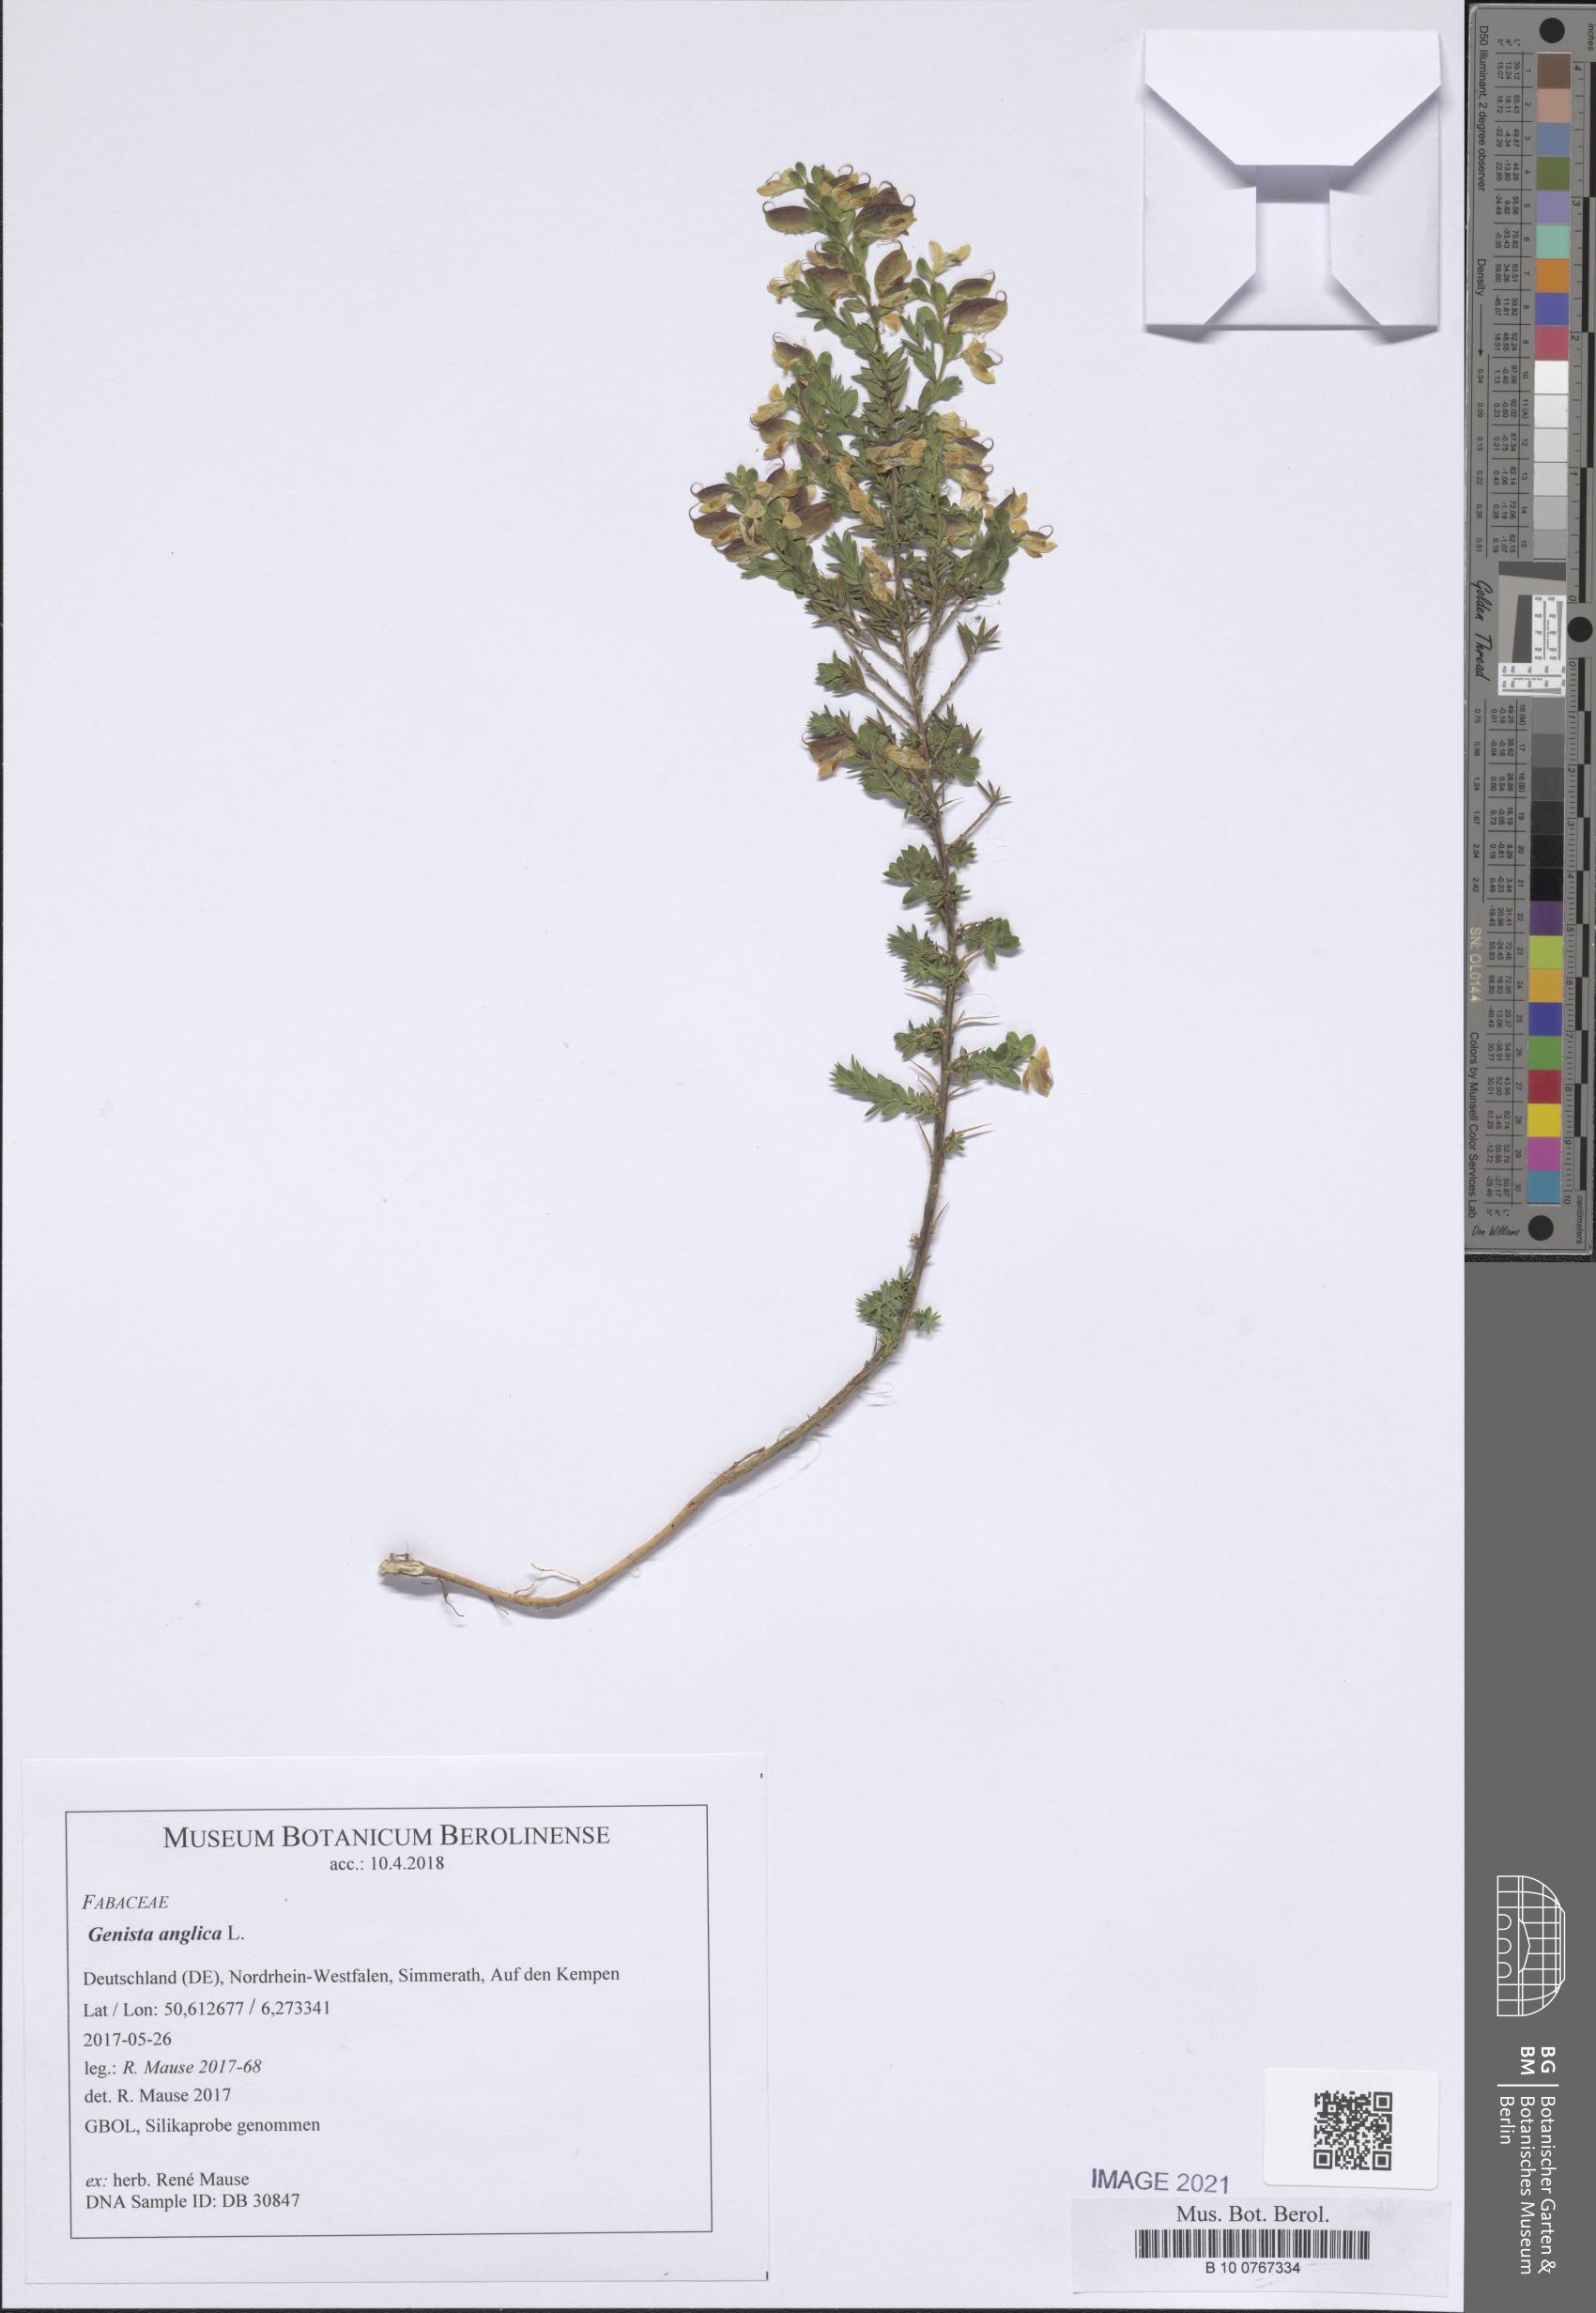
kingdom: Plantae
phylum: Tracheophyta
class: Magnoliopsida
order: Fabales
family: Fabaceae
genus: Genista
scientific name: Genista anglica
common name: Petty whin
